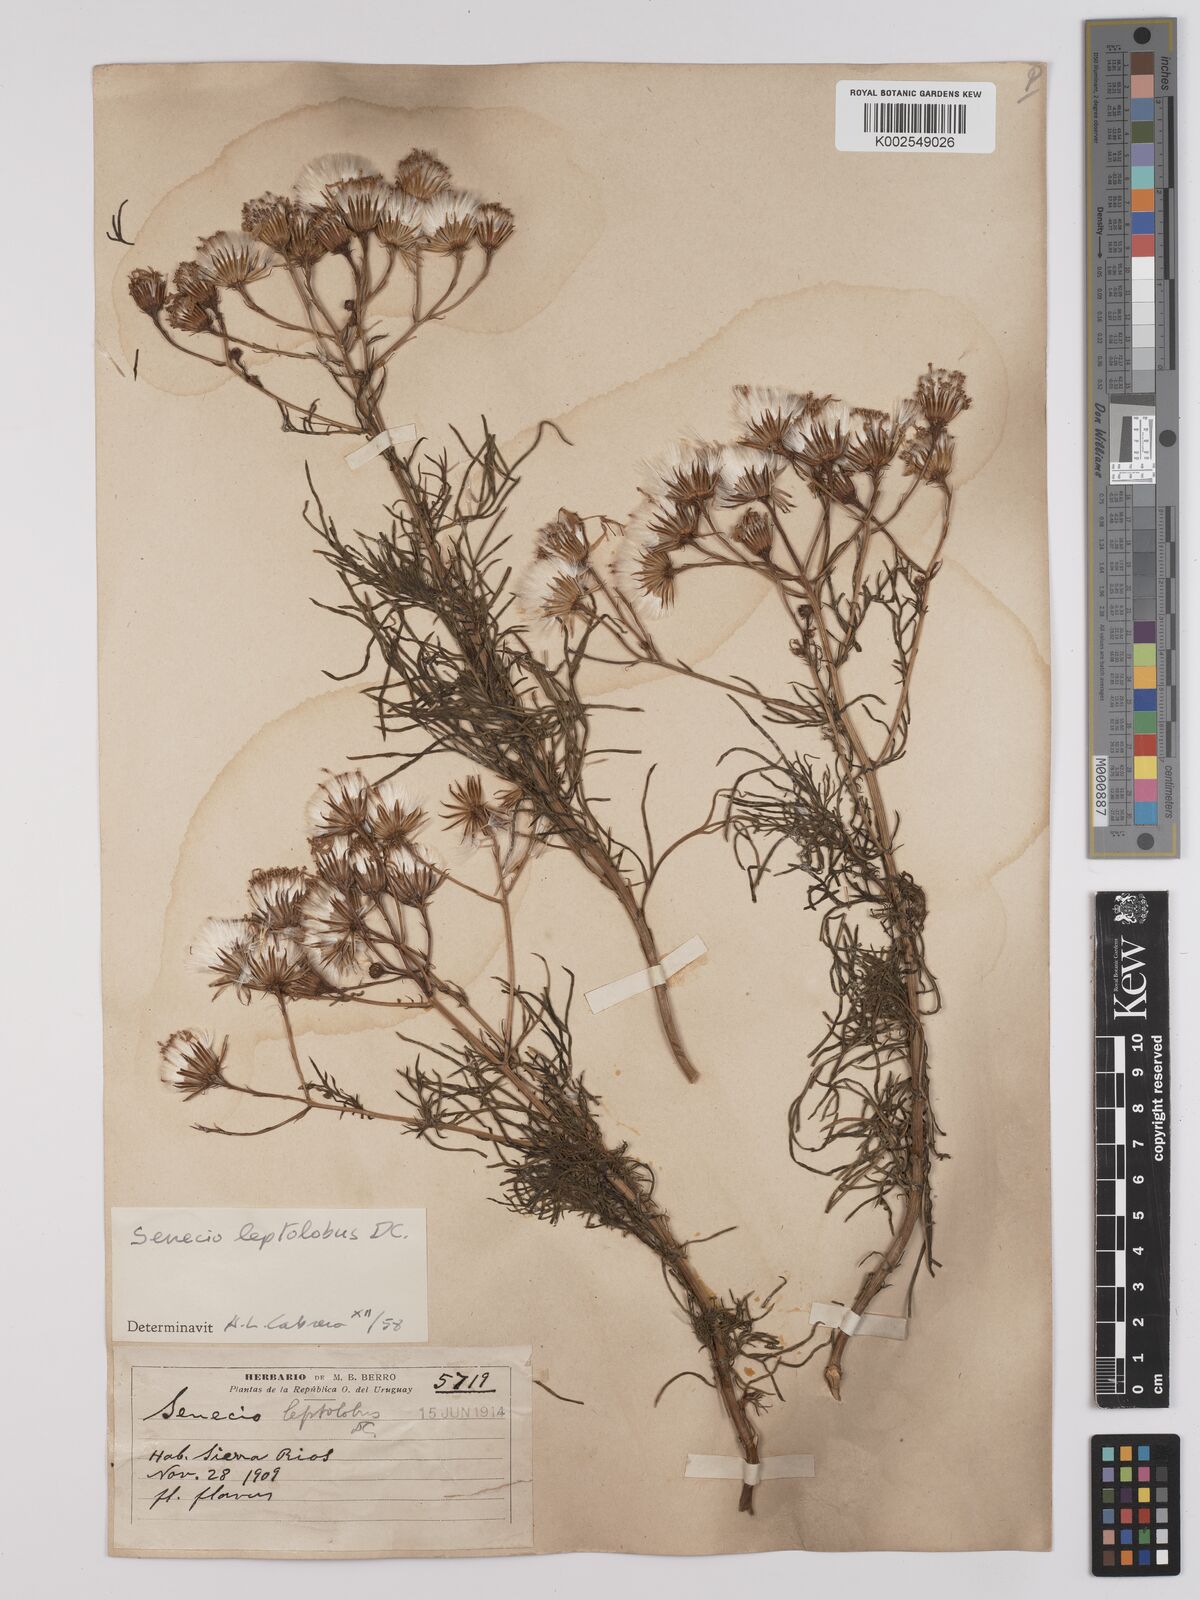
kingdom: Plantae
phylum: Tracheophyta
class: Magnoliopsida
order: Asterales
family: Asteraceae
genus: Senecio
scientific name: Senecio leptolobus
